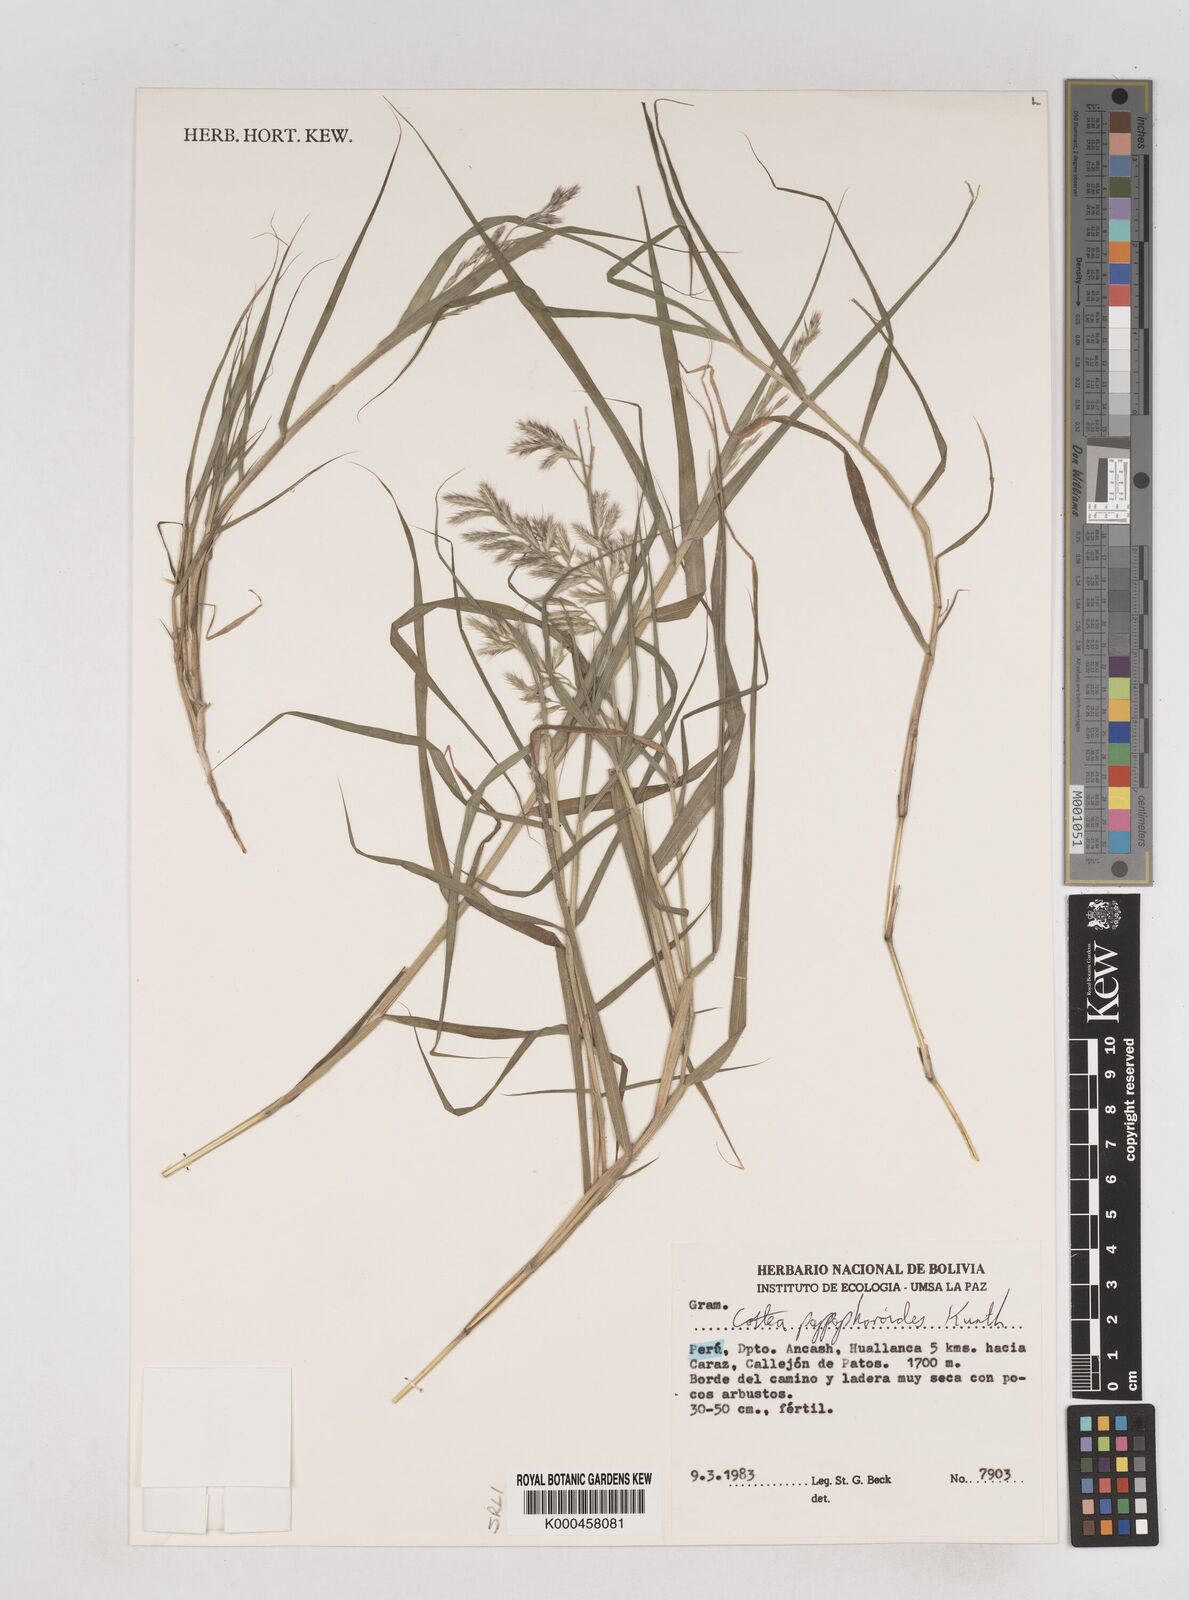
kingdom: Plantae
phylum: Tracheophyta
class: Liliopsida
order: Poales
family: Poaceae
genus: Cottea
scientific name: Cottea
